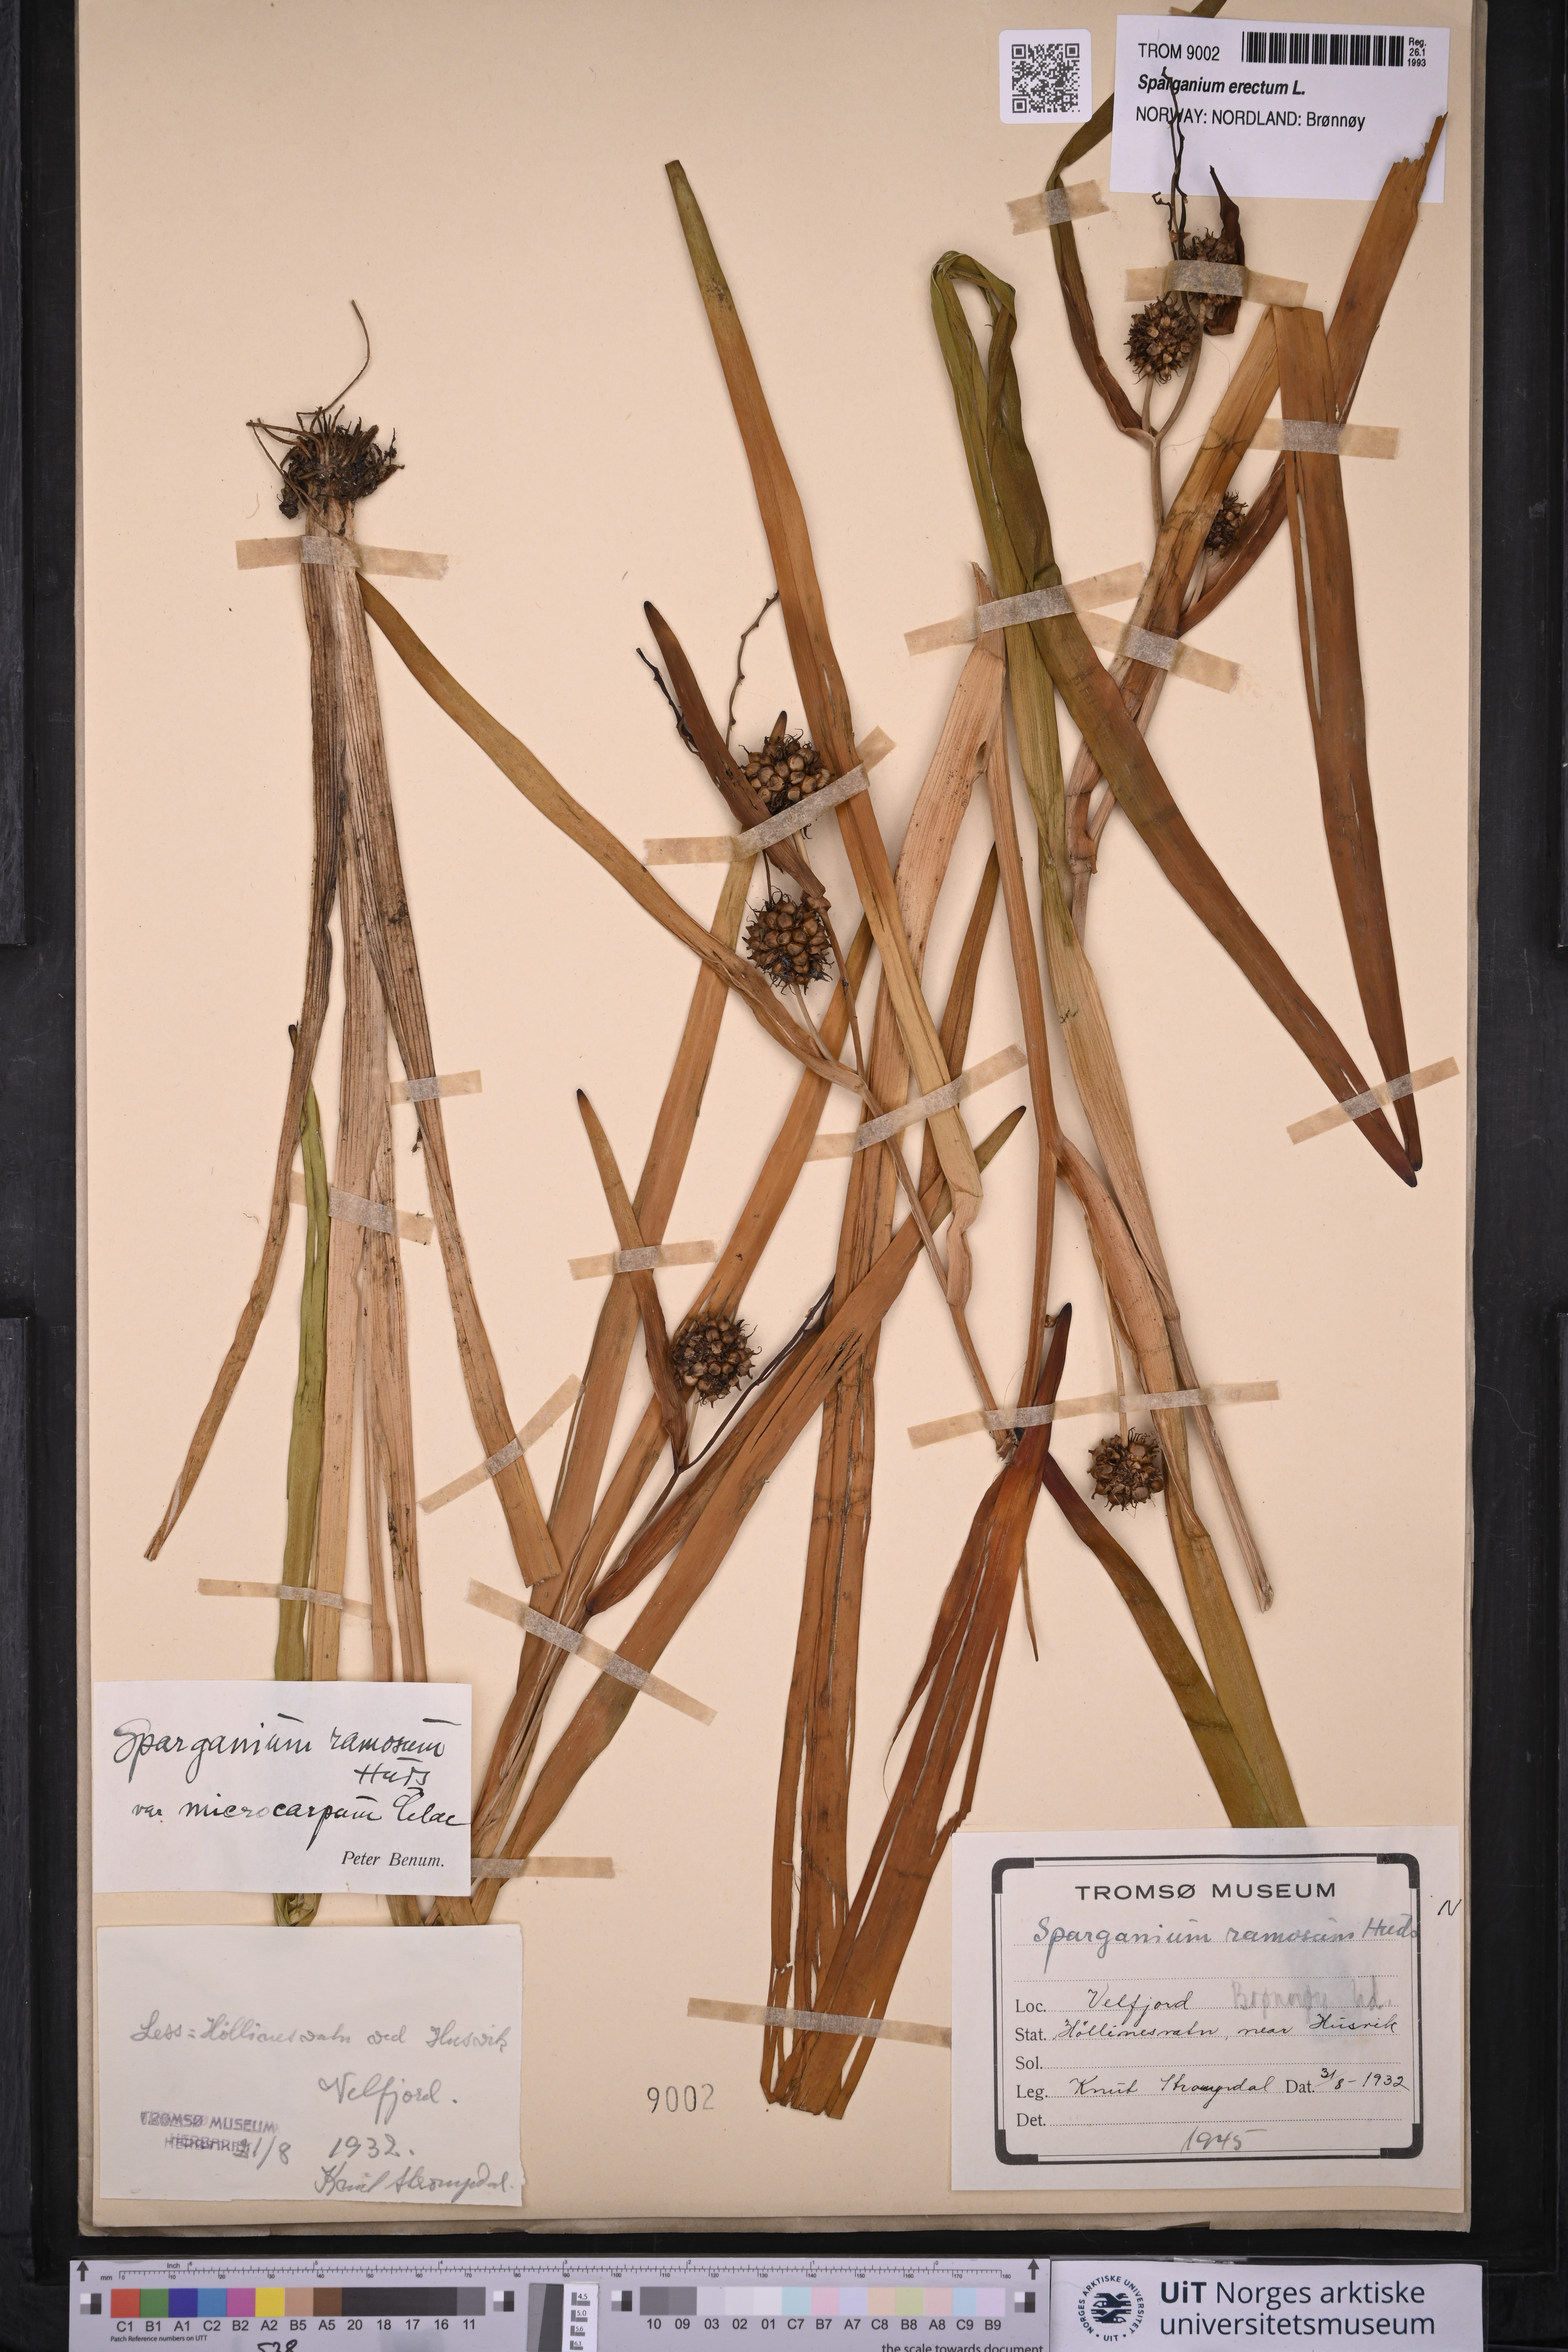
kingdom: Plantae
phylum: Tracheophyta
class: Liliopsida
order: Poales
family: Typhaceae
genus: Sparganium
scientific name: Sparganium erectum
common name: Branched bur-reed
